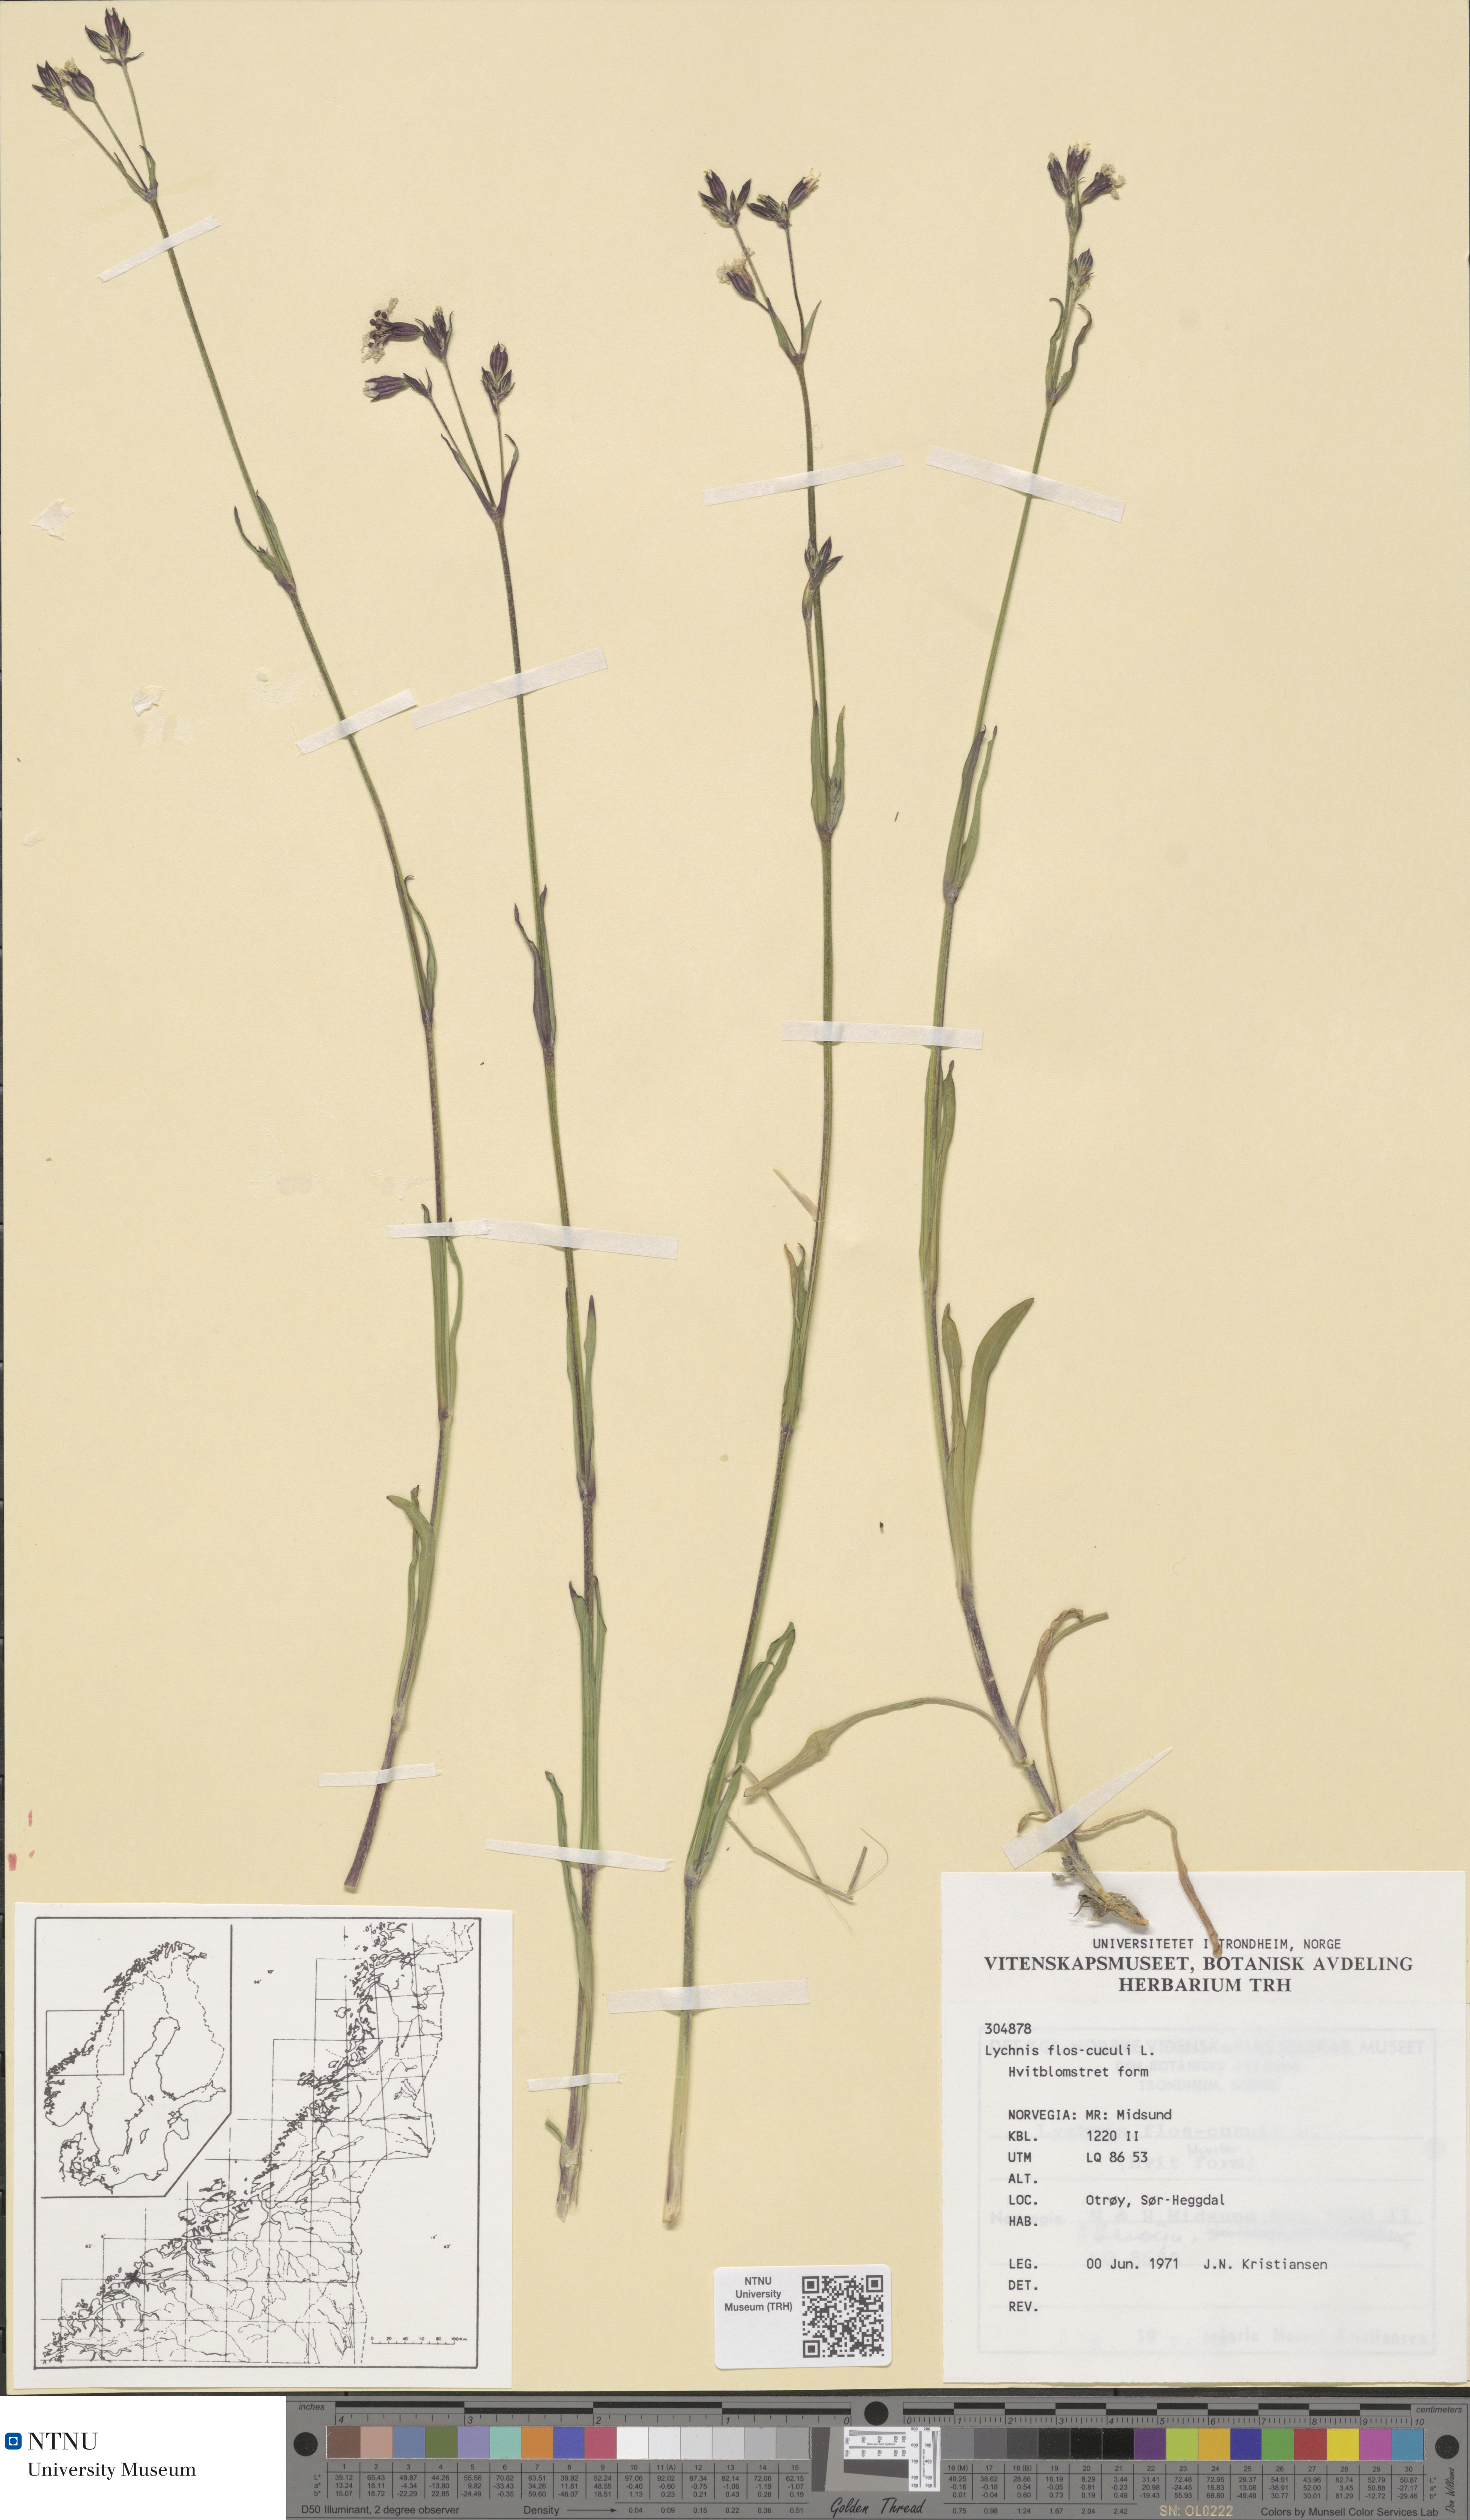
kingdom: Plantae
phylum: Tracheophyta
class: Magnoliopsida
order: Caryophyllales
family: Caryophyllaceae
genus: Silene
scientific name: Silene flos-cuculi
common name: Ragged-robin
